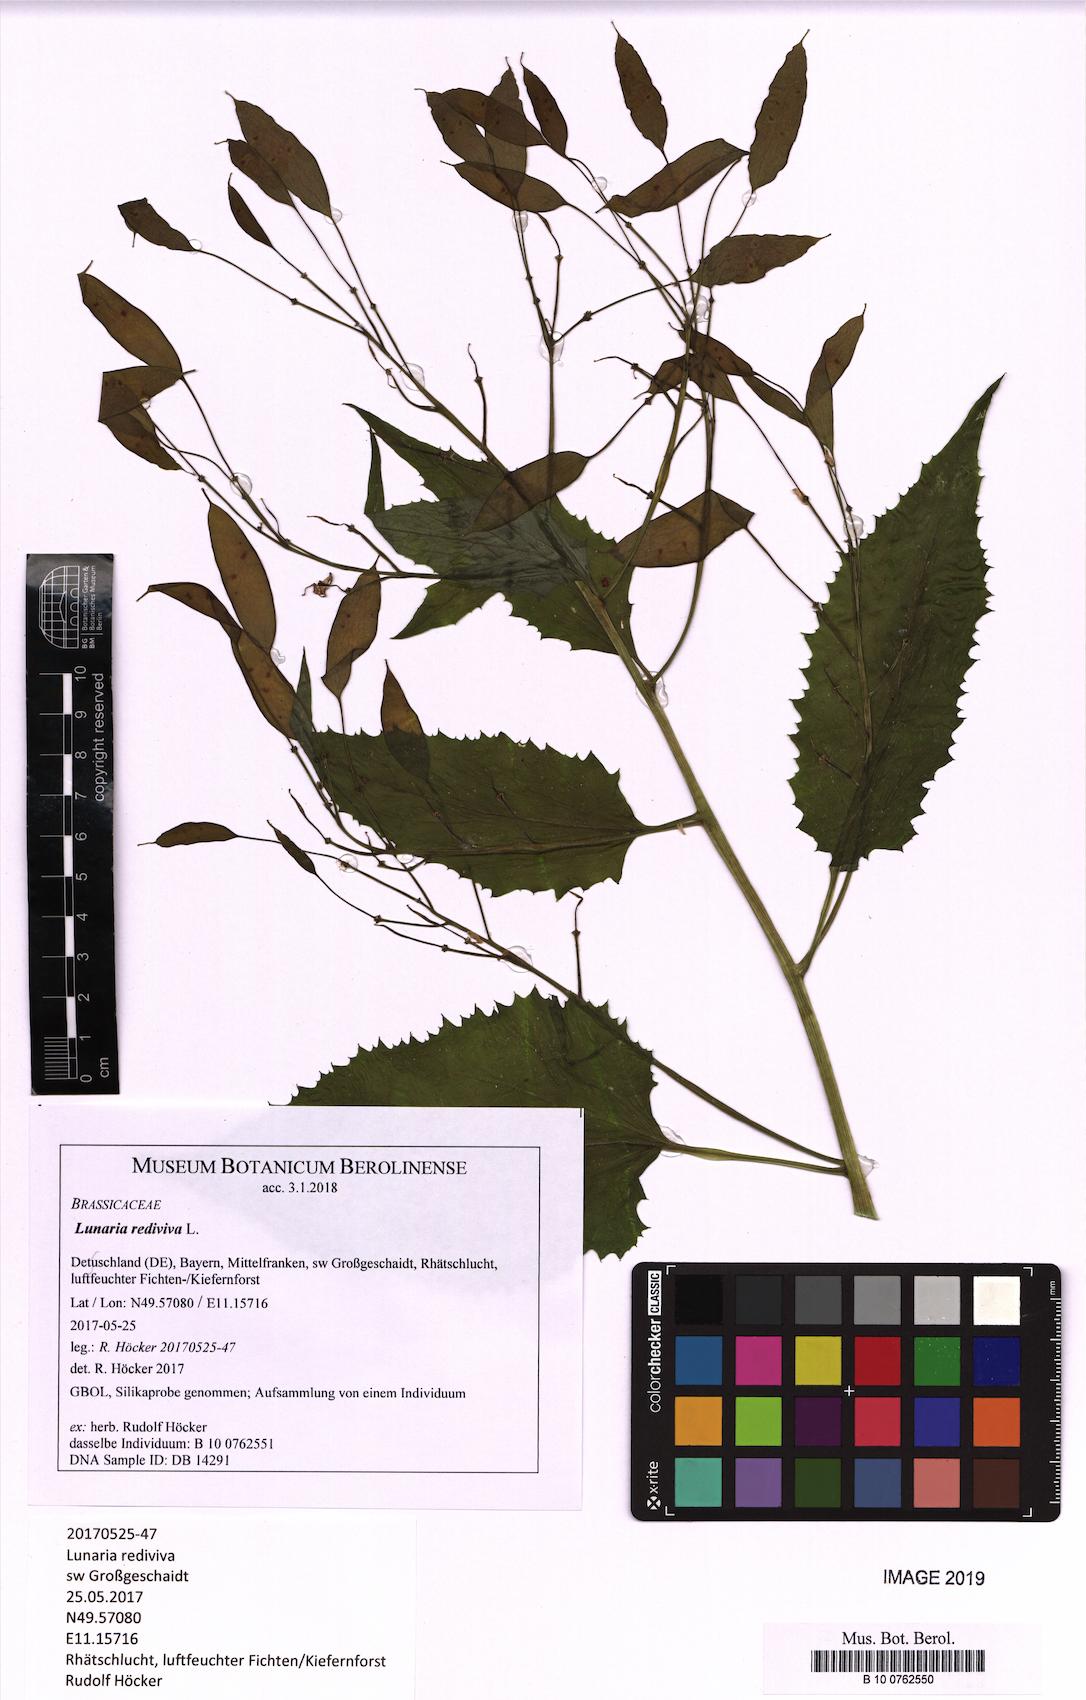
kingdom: Plantae
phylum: Tracheophyta
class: Magnoliopsida
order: Brassicales
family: Brassicaceae
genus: Lunaria
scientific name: Lunaria rediviva
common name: Perennial honesty
